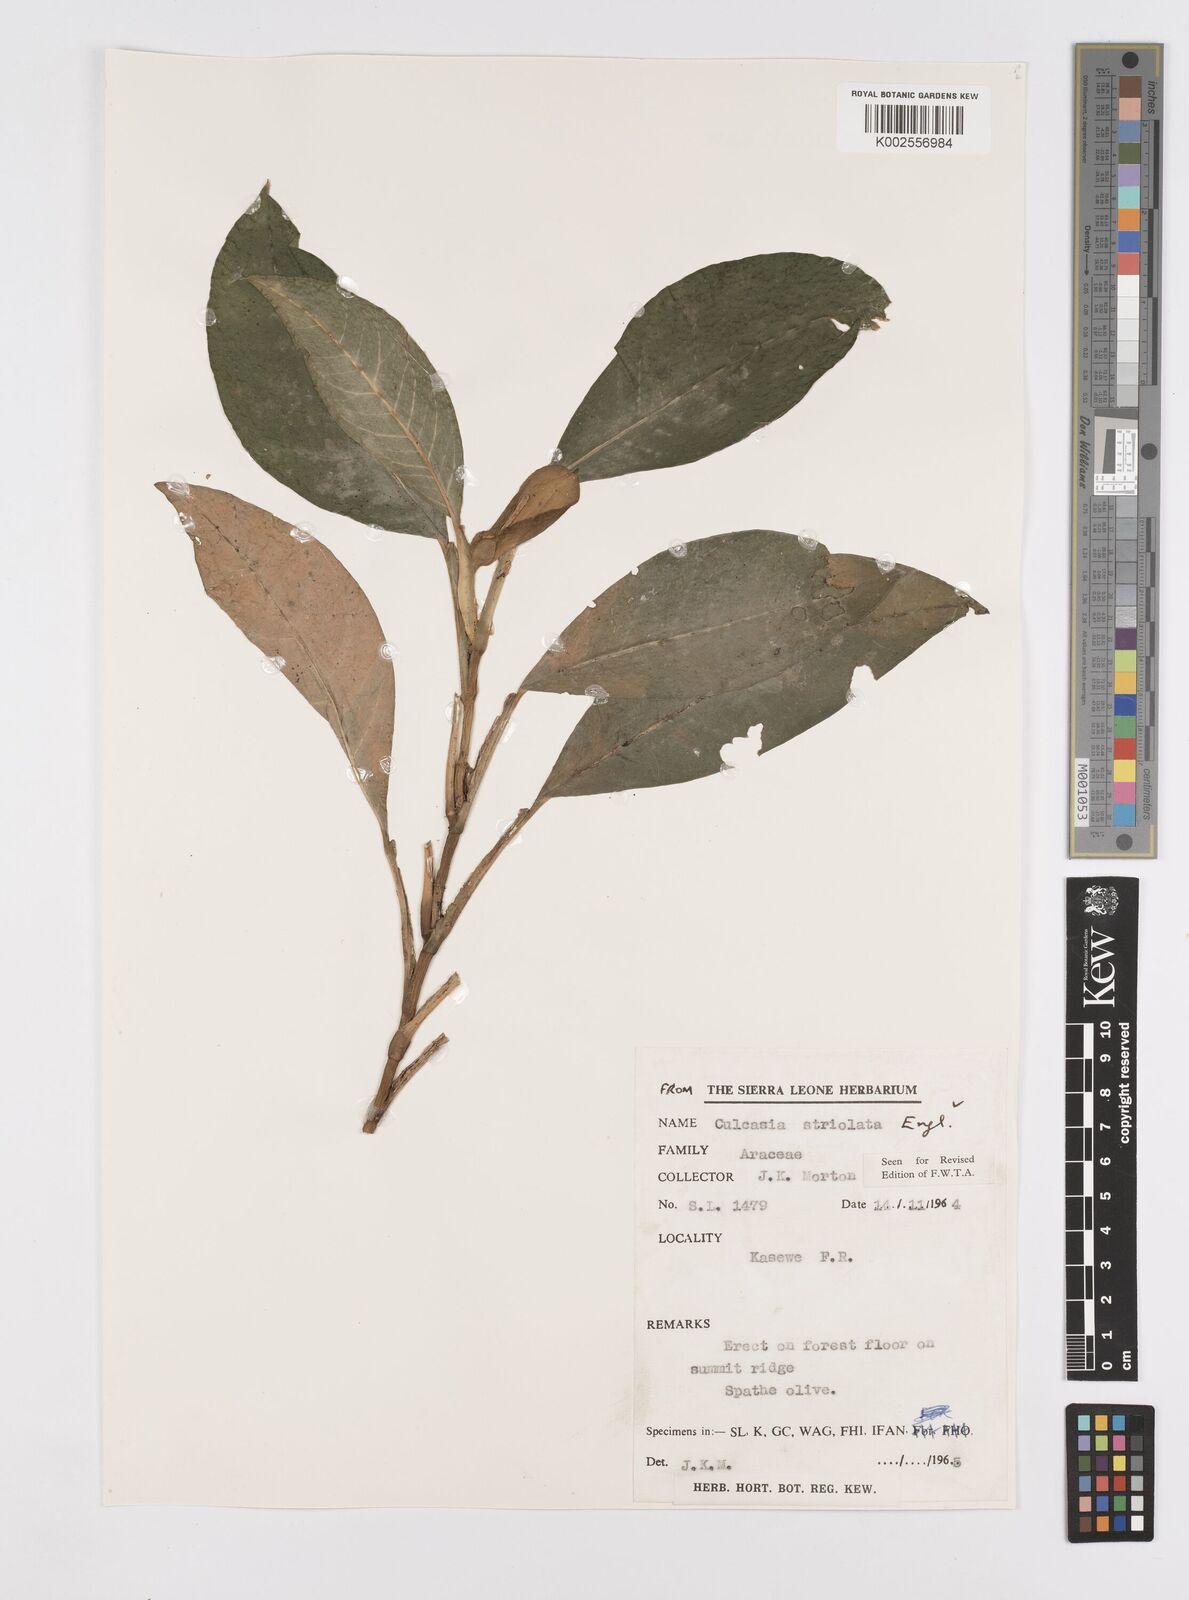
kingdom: Plantae
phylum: Tracheophyta
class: Liliopsida
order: Alismatales
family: Araceae
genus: Culcasia
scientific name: Culcasia striolata
